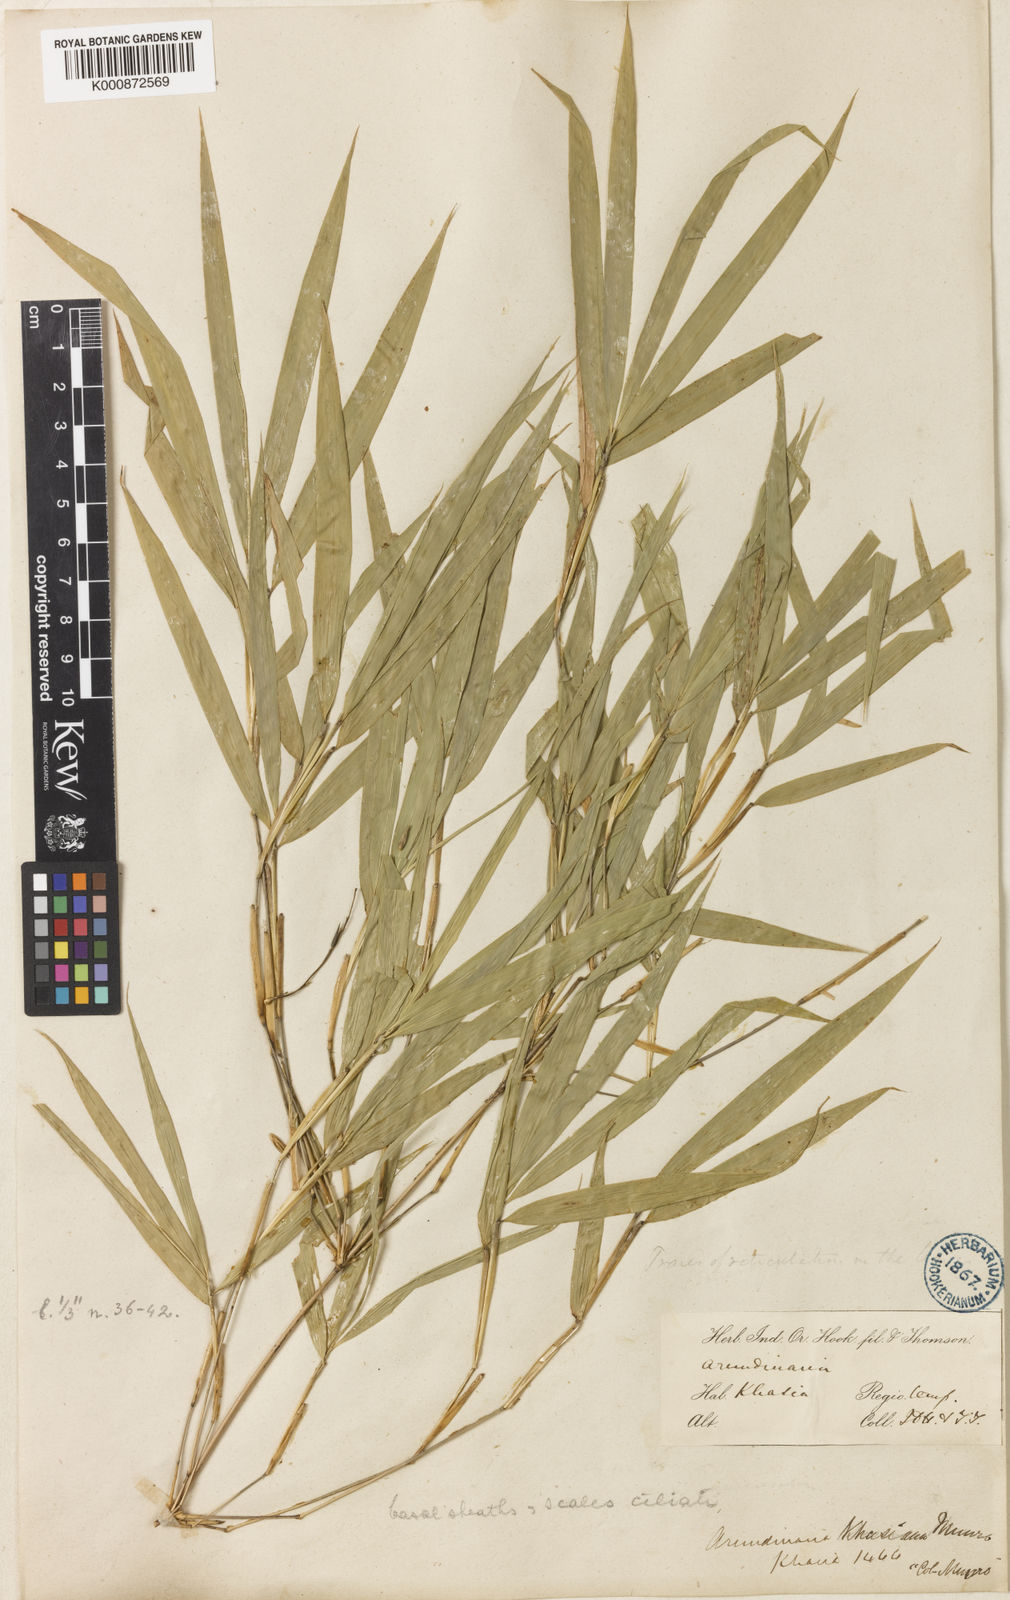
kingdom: Plantae
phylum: Tracheophyta
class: Liliopsida
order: Poales
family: Poaceae
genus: Drepanostachyum
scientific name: Drepanostachyum
